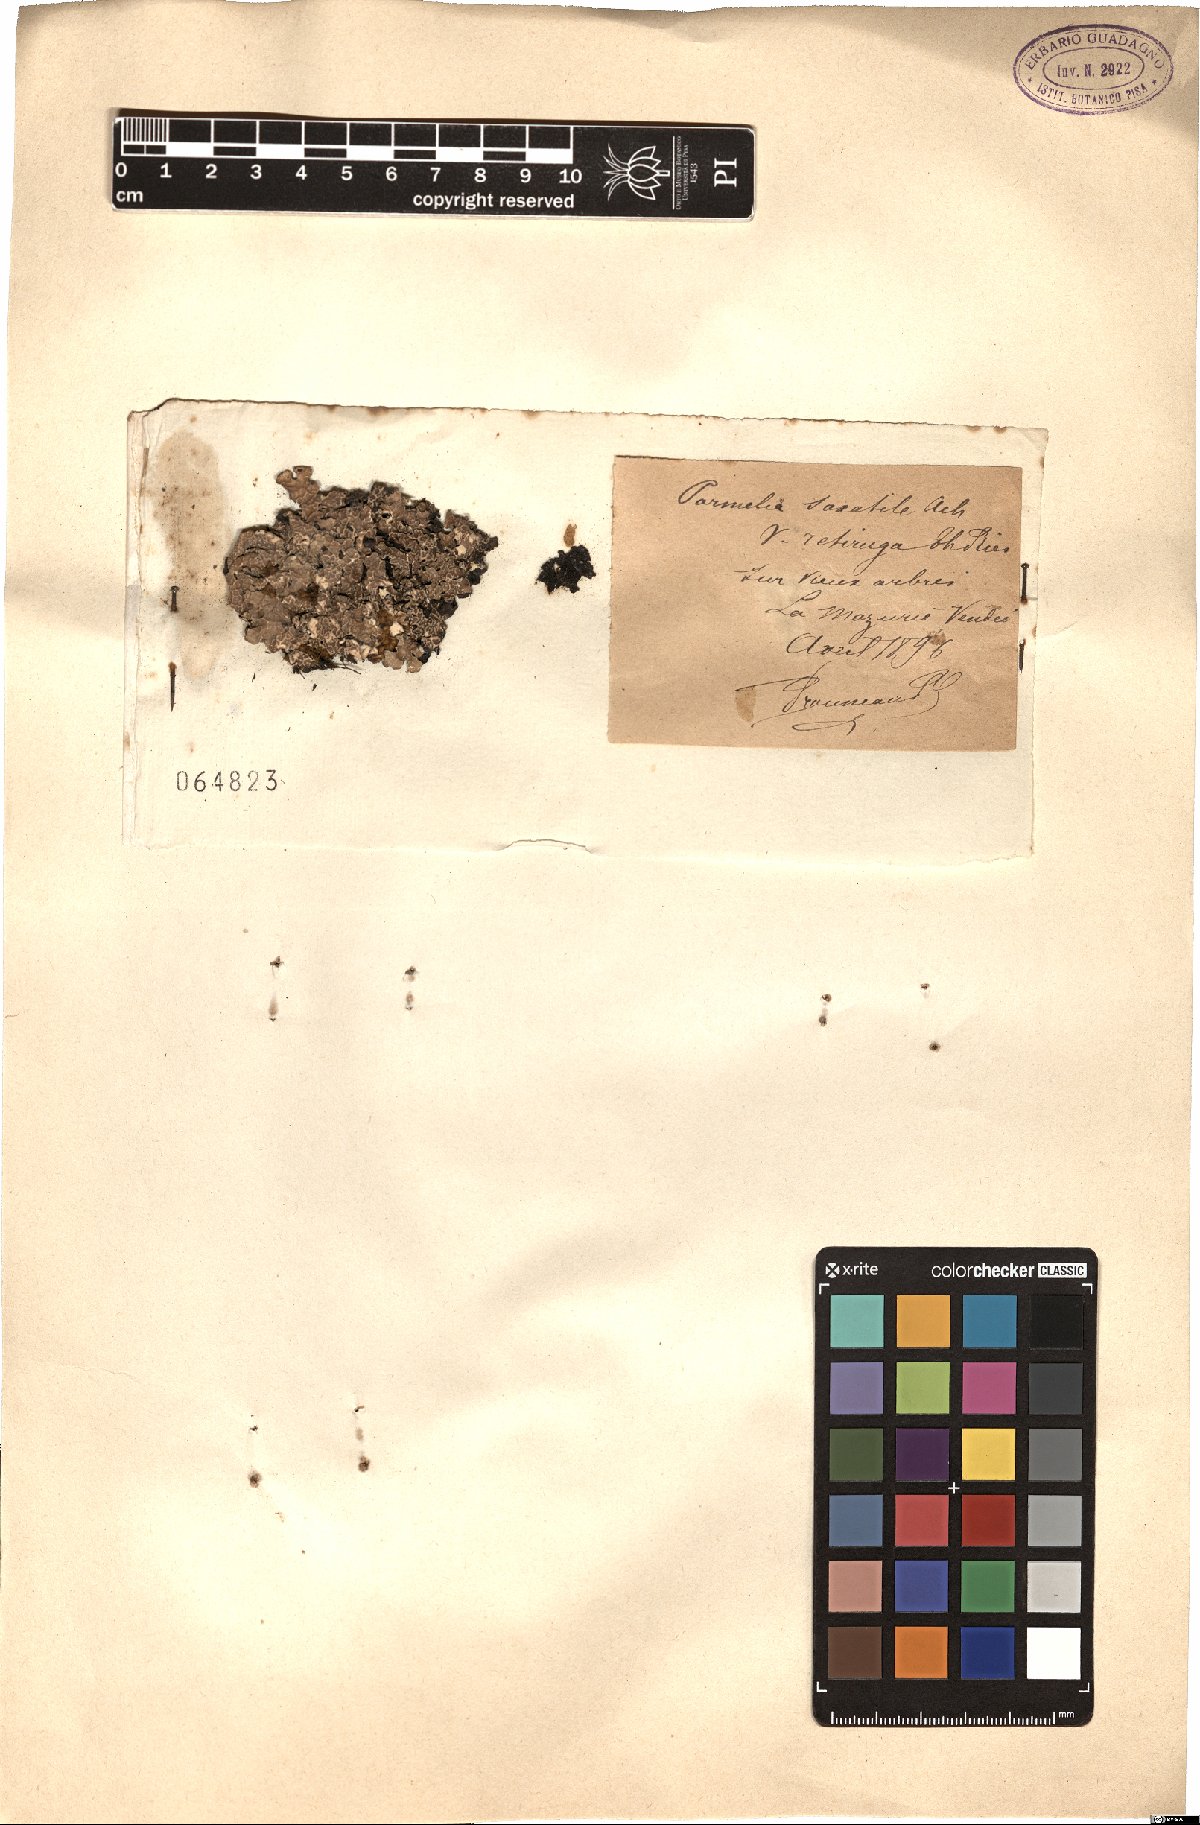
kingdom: Fungi
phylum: Ascomycota
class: Lecanoromycetes
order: Lecanorales
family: Parmeliaceae
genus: Parmelia
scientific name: Parmelia saxatilis
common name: Salted shield lichen
